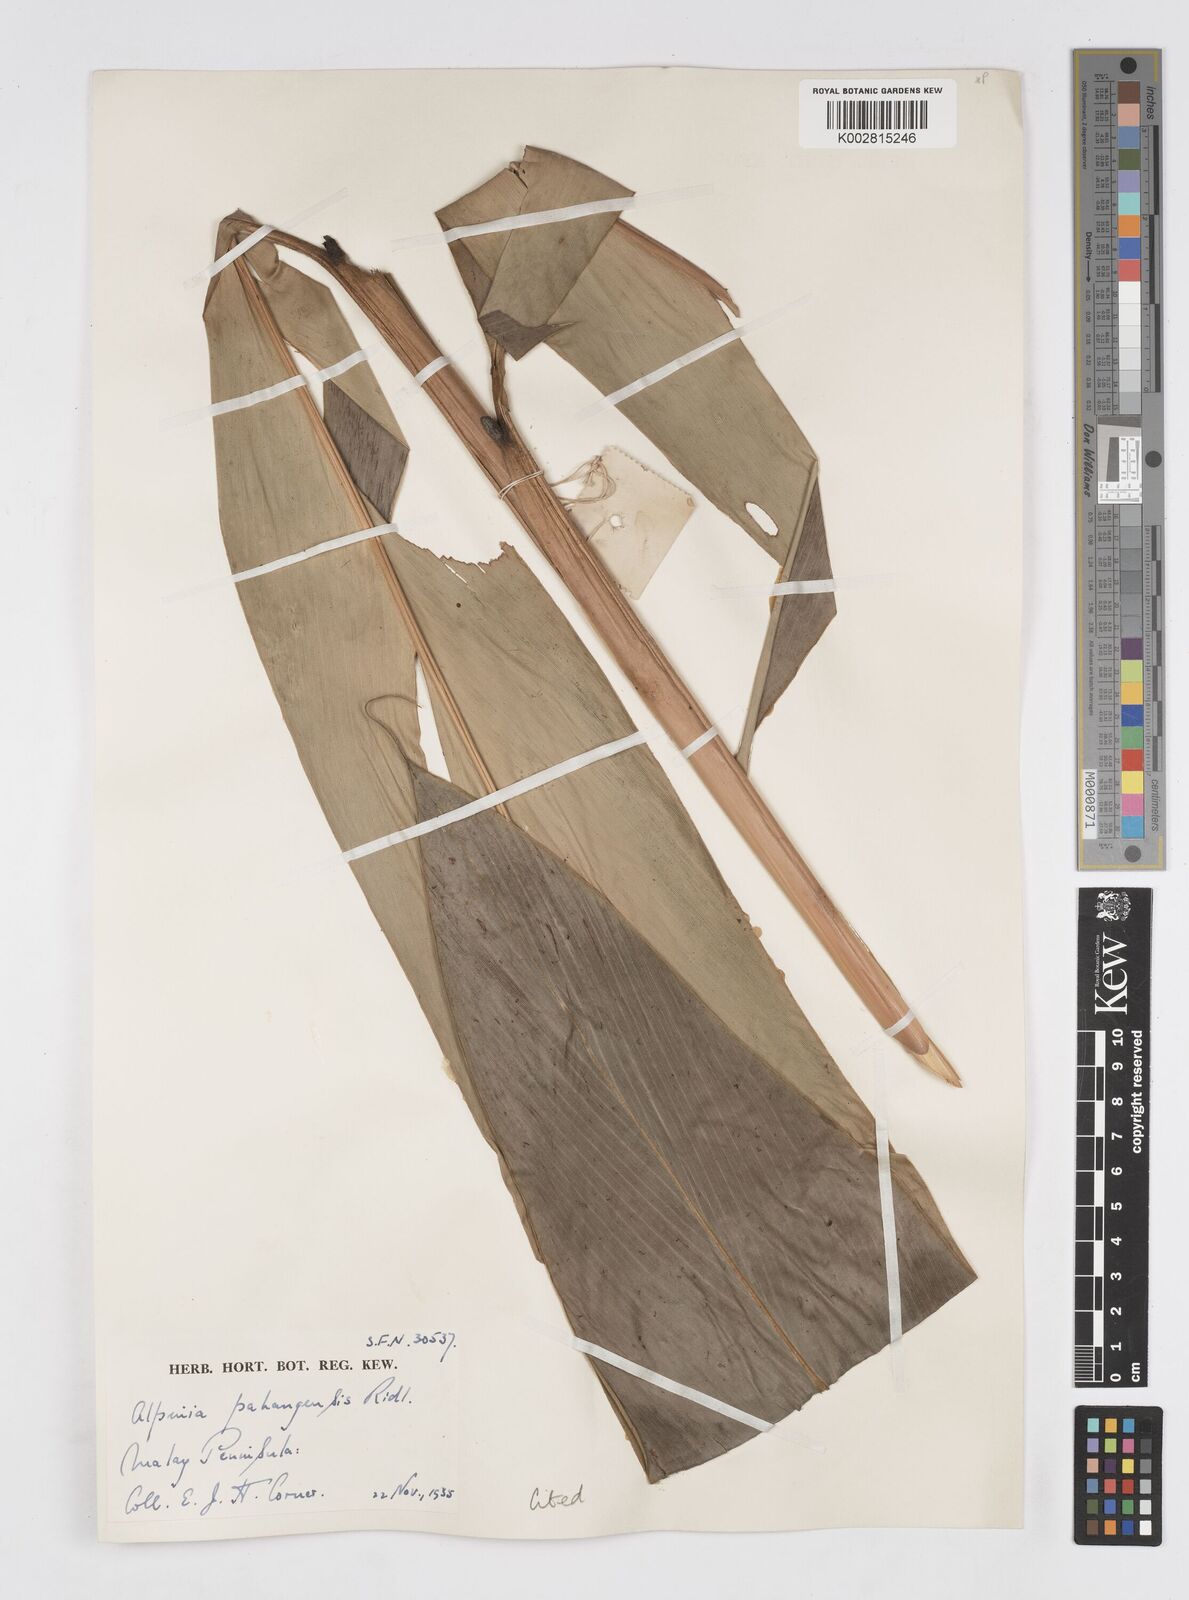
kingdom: Plantae
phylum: Tracheophyta
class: Liliopsida
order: Zingiberales
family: Zingiberaceae
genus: Alpinia
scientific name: Alpinia pahangensis
